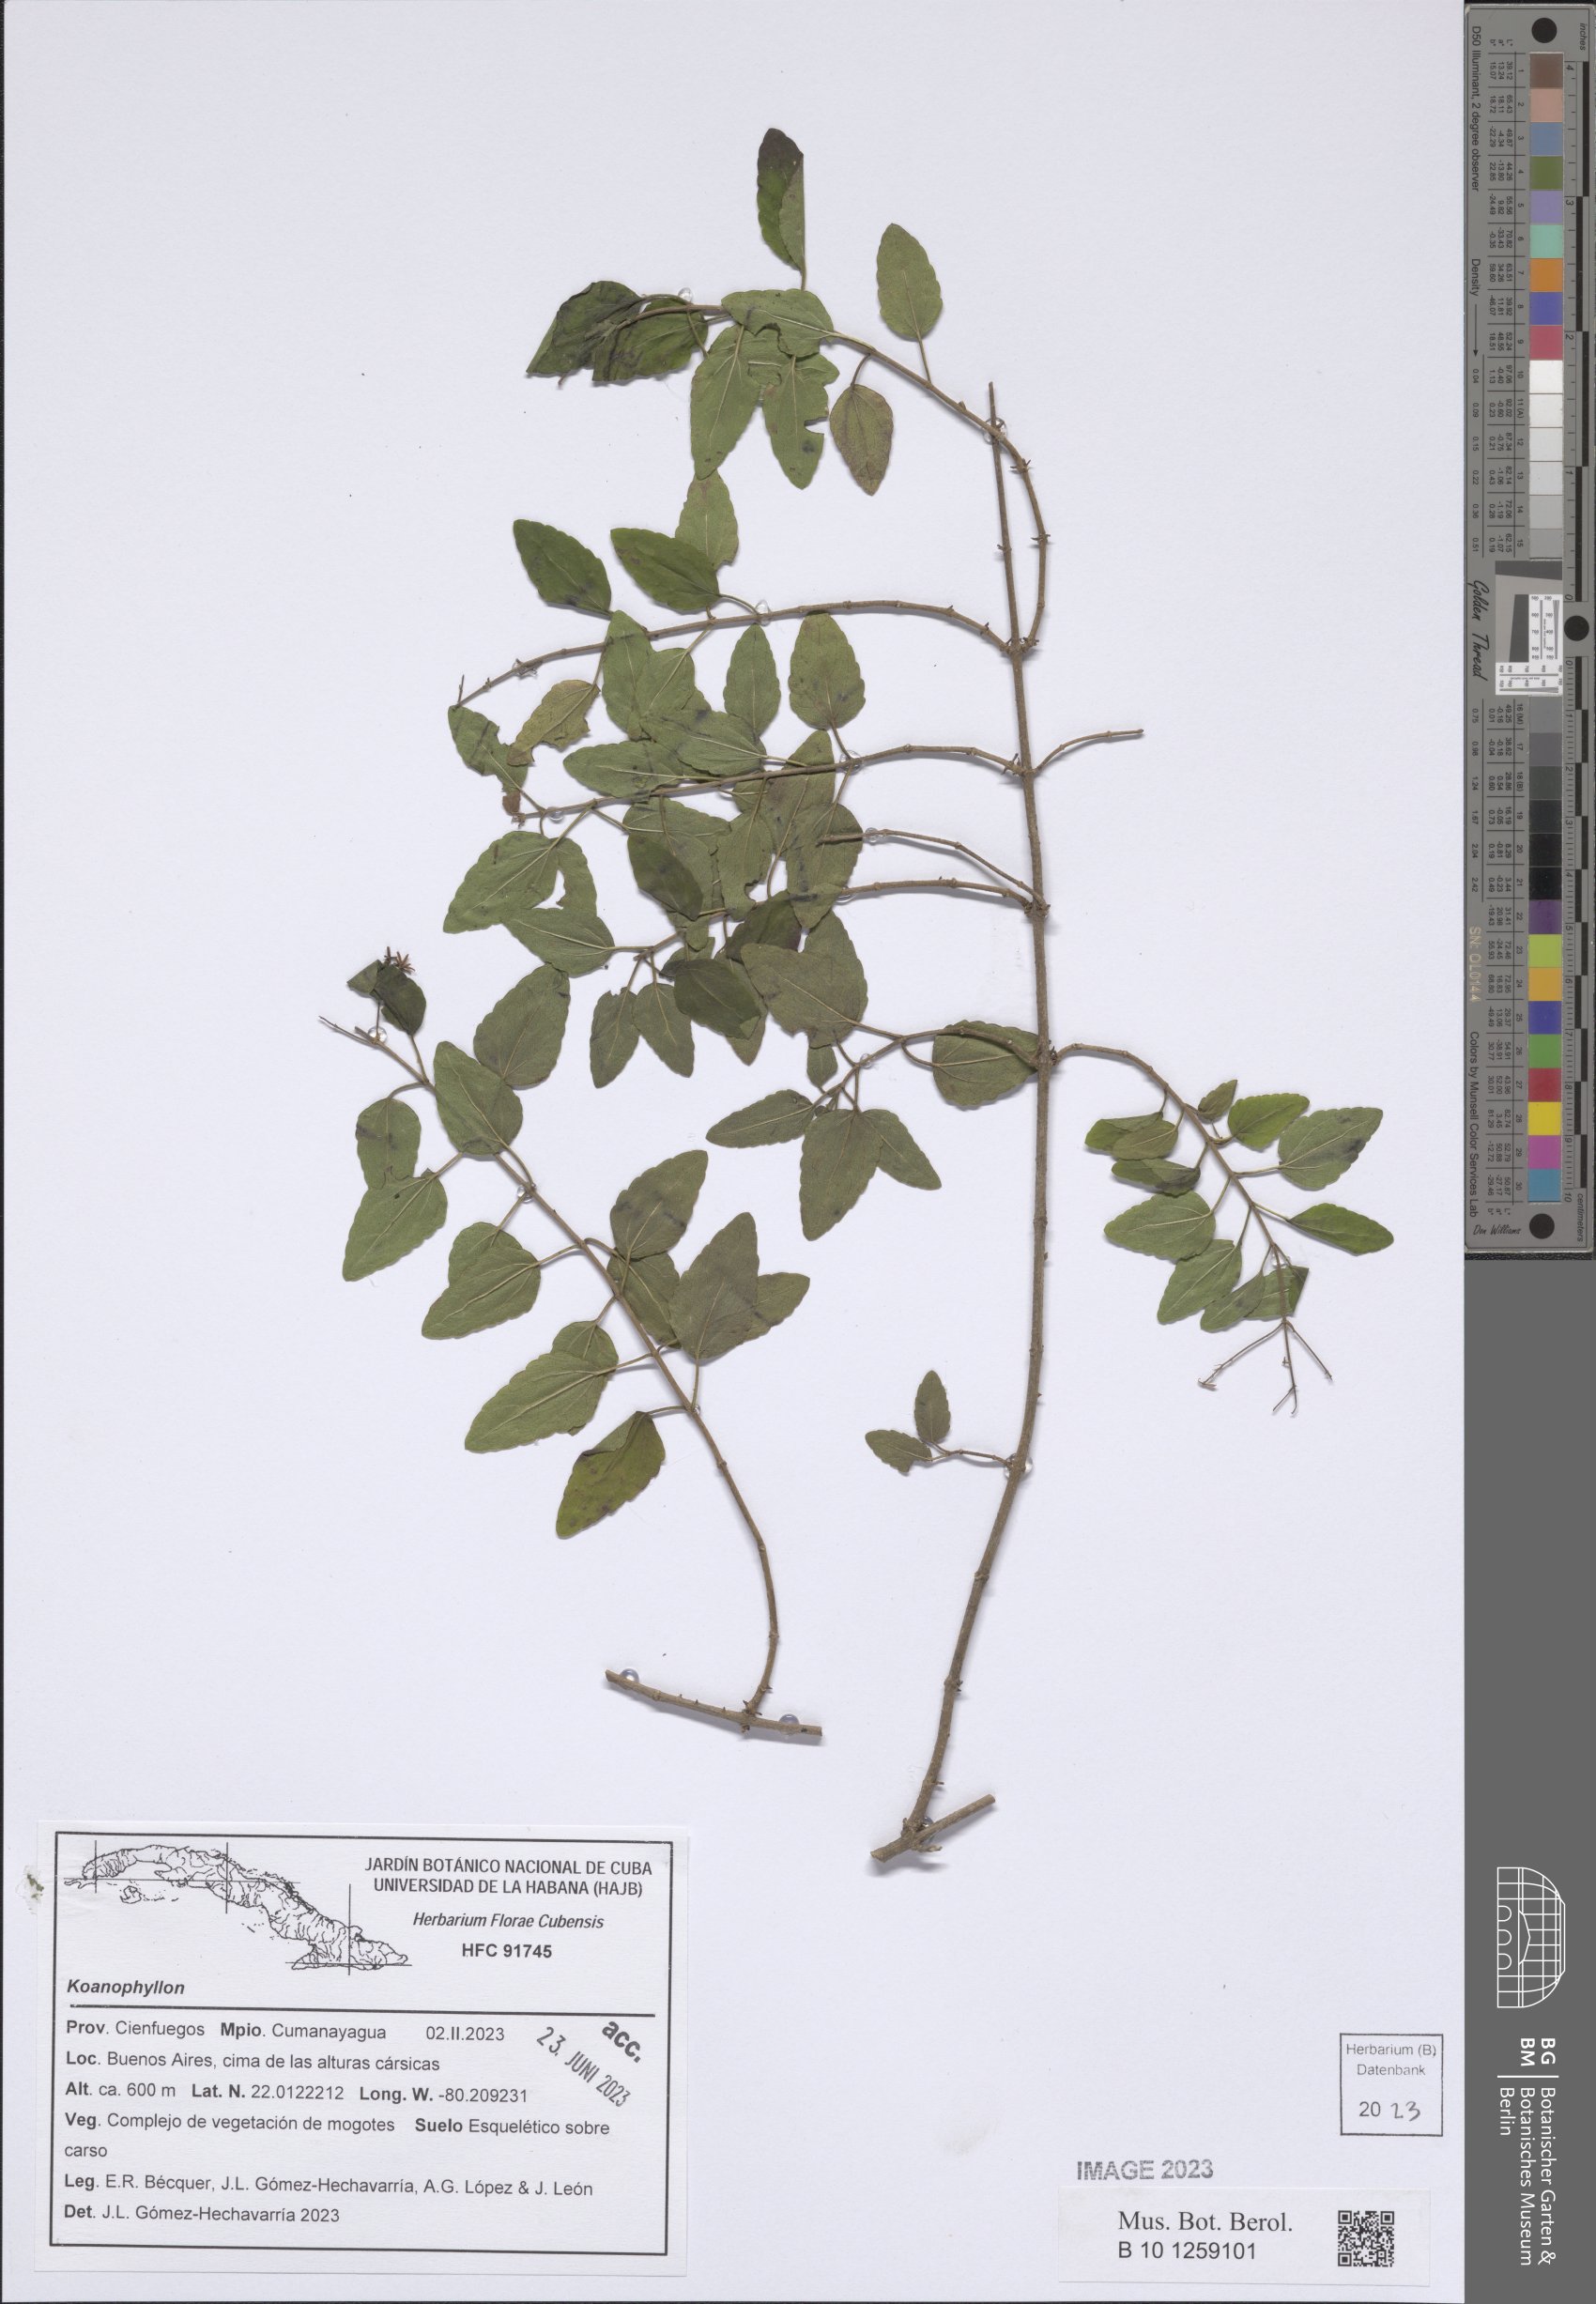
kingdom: Plantae
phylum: Tracheophyta
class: Magnoliopsida
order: Asterales
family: Asteraceae
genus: Koanophyllon
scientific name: Koanophyllon
